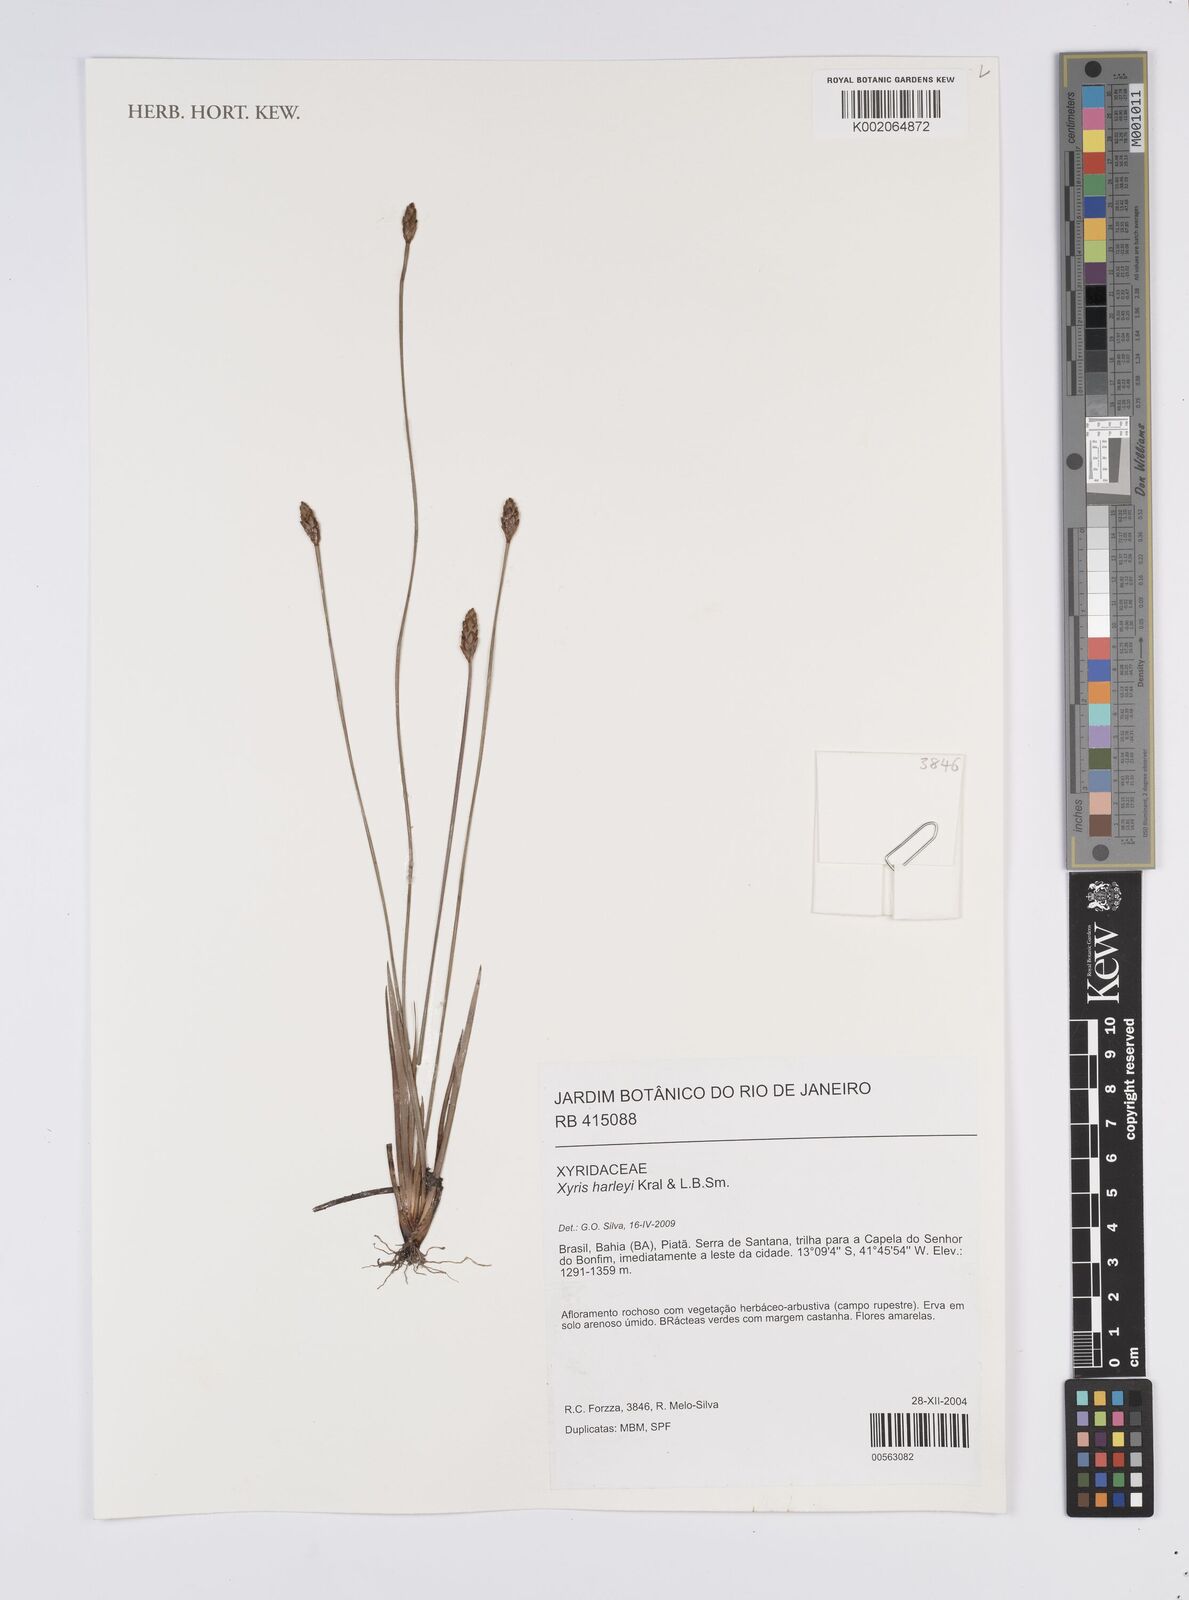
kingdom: Plantae
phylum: Tracheophyta
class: Liliopsida
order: Poales
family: Xyridaceae
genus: Xyris
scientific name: Xyris harleyi
